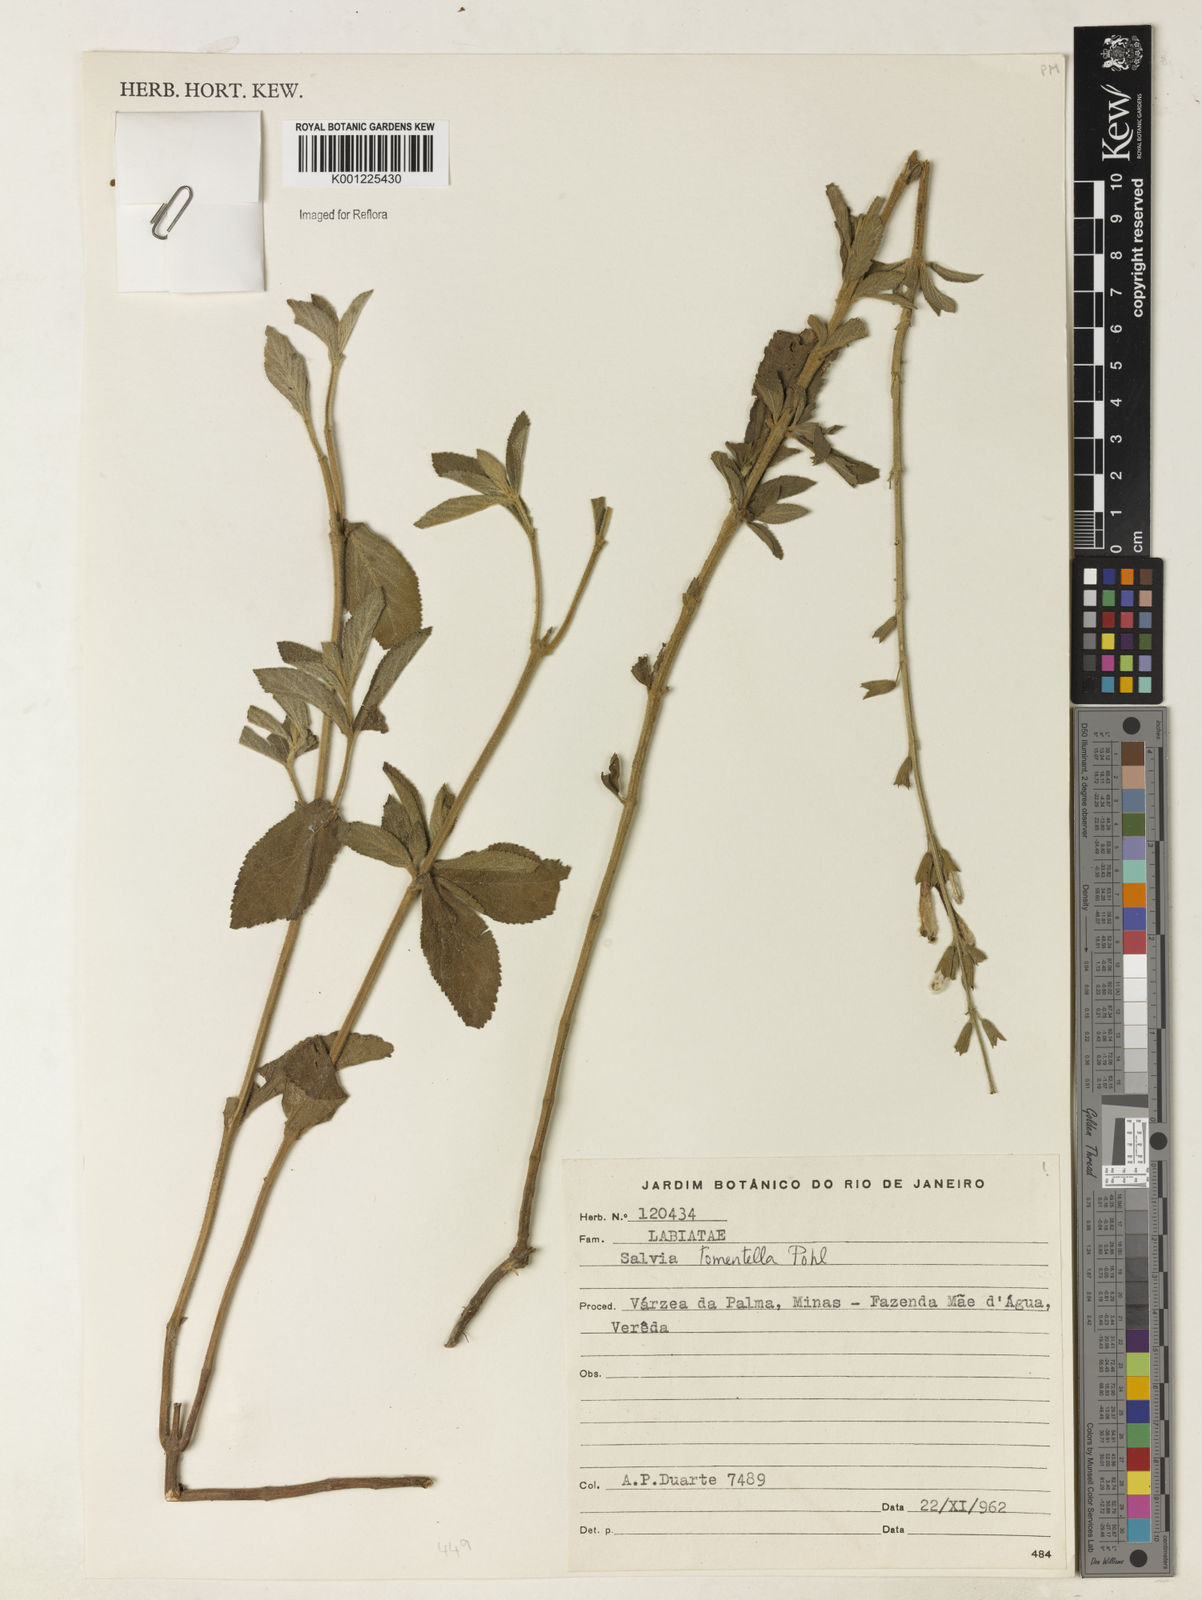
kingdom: Plantae
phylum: Tracheophyta
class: Magnoliopsida
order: Lamiales
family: Lamiaceae
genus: Salvia
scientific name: Salvia tomentella
